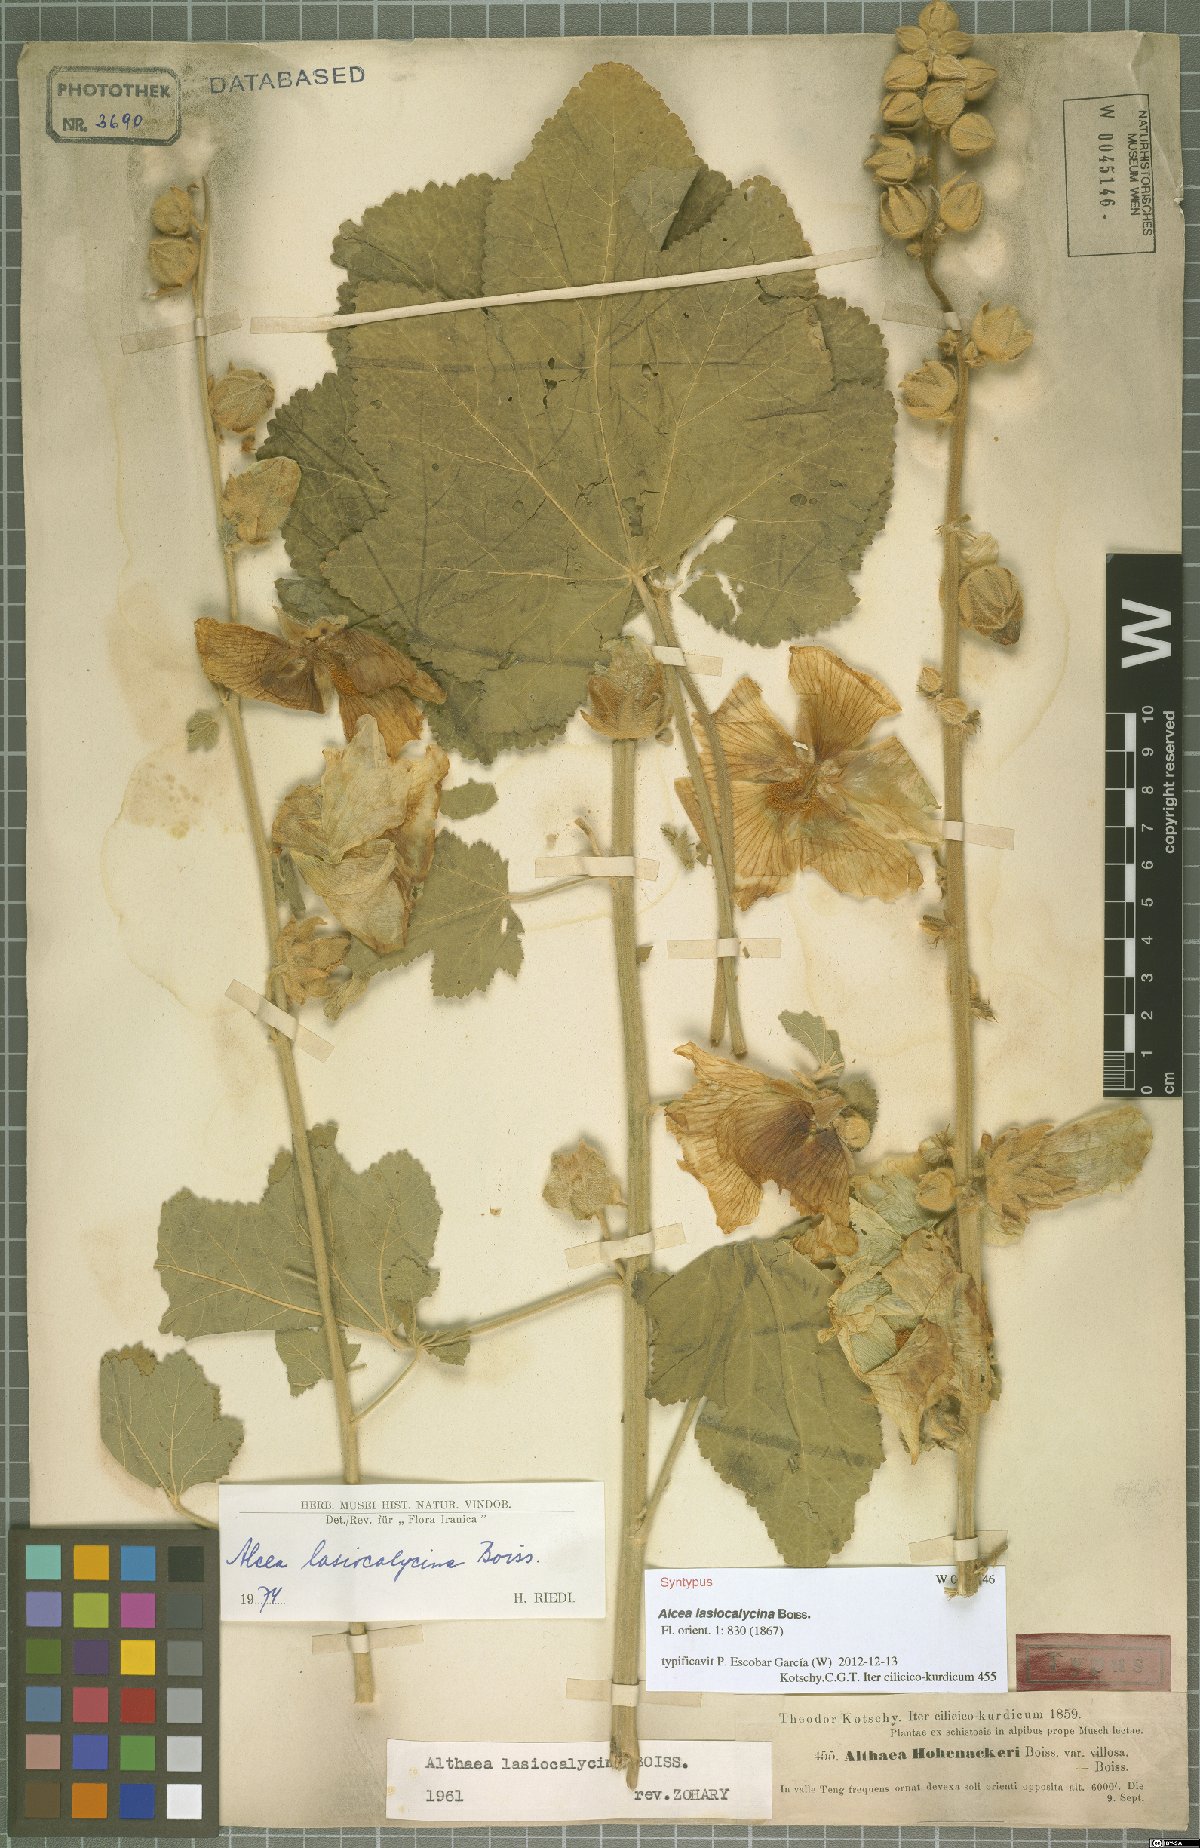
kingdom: Plantae
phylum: Tracheophyta
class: Magnoliopsida
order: Malvales
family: Malvaceae
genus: Alcea
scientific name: Alcea lasiocalycina
